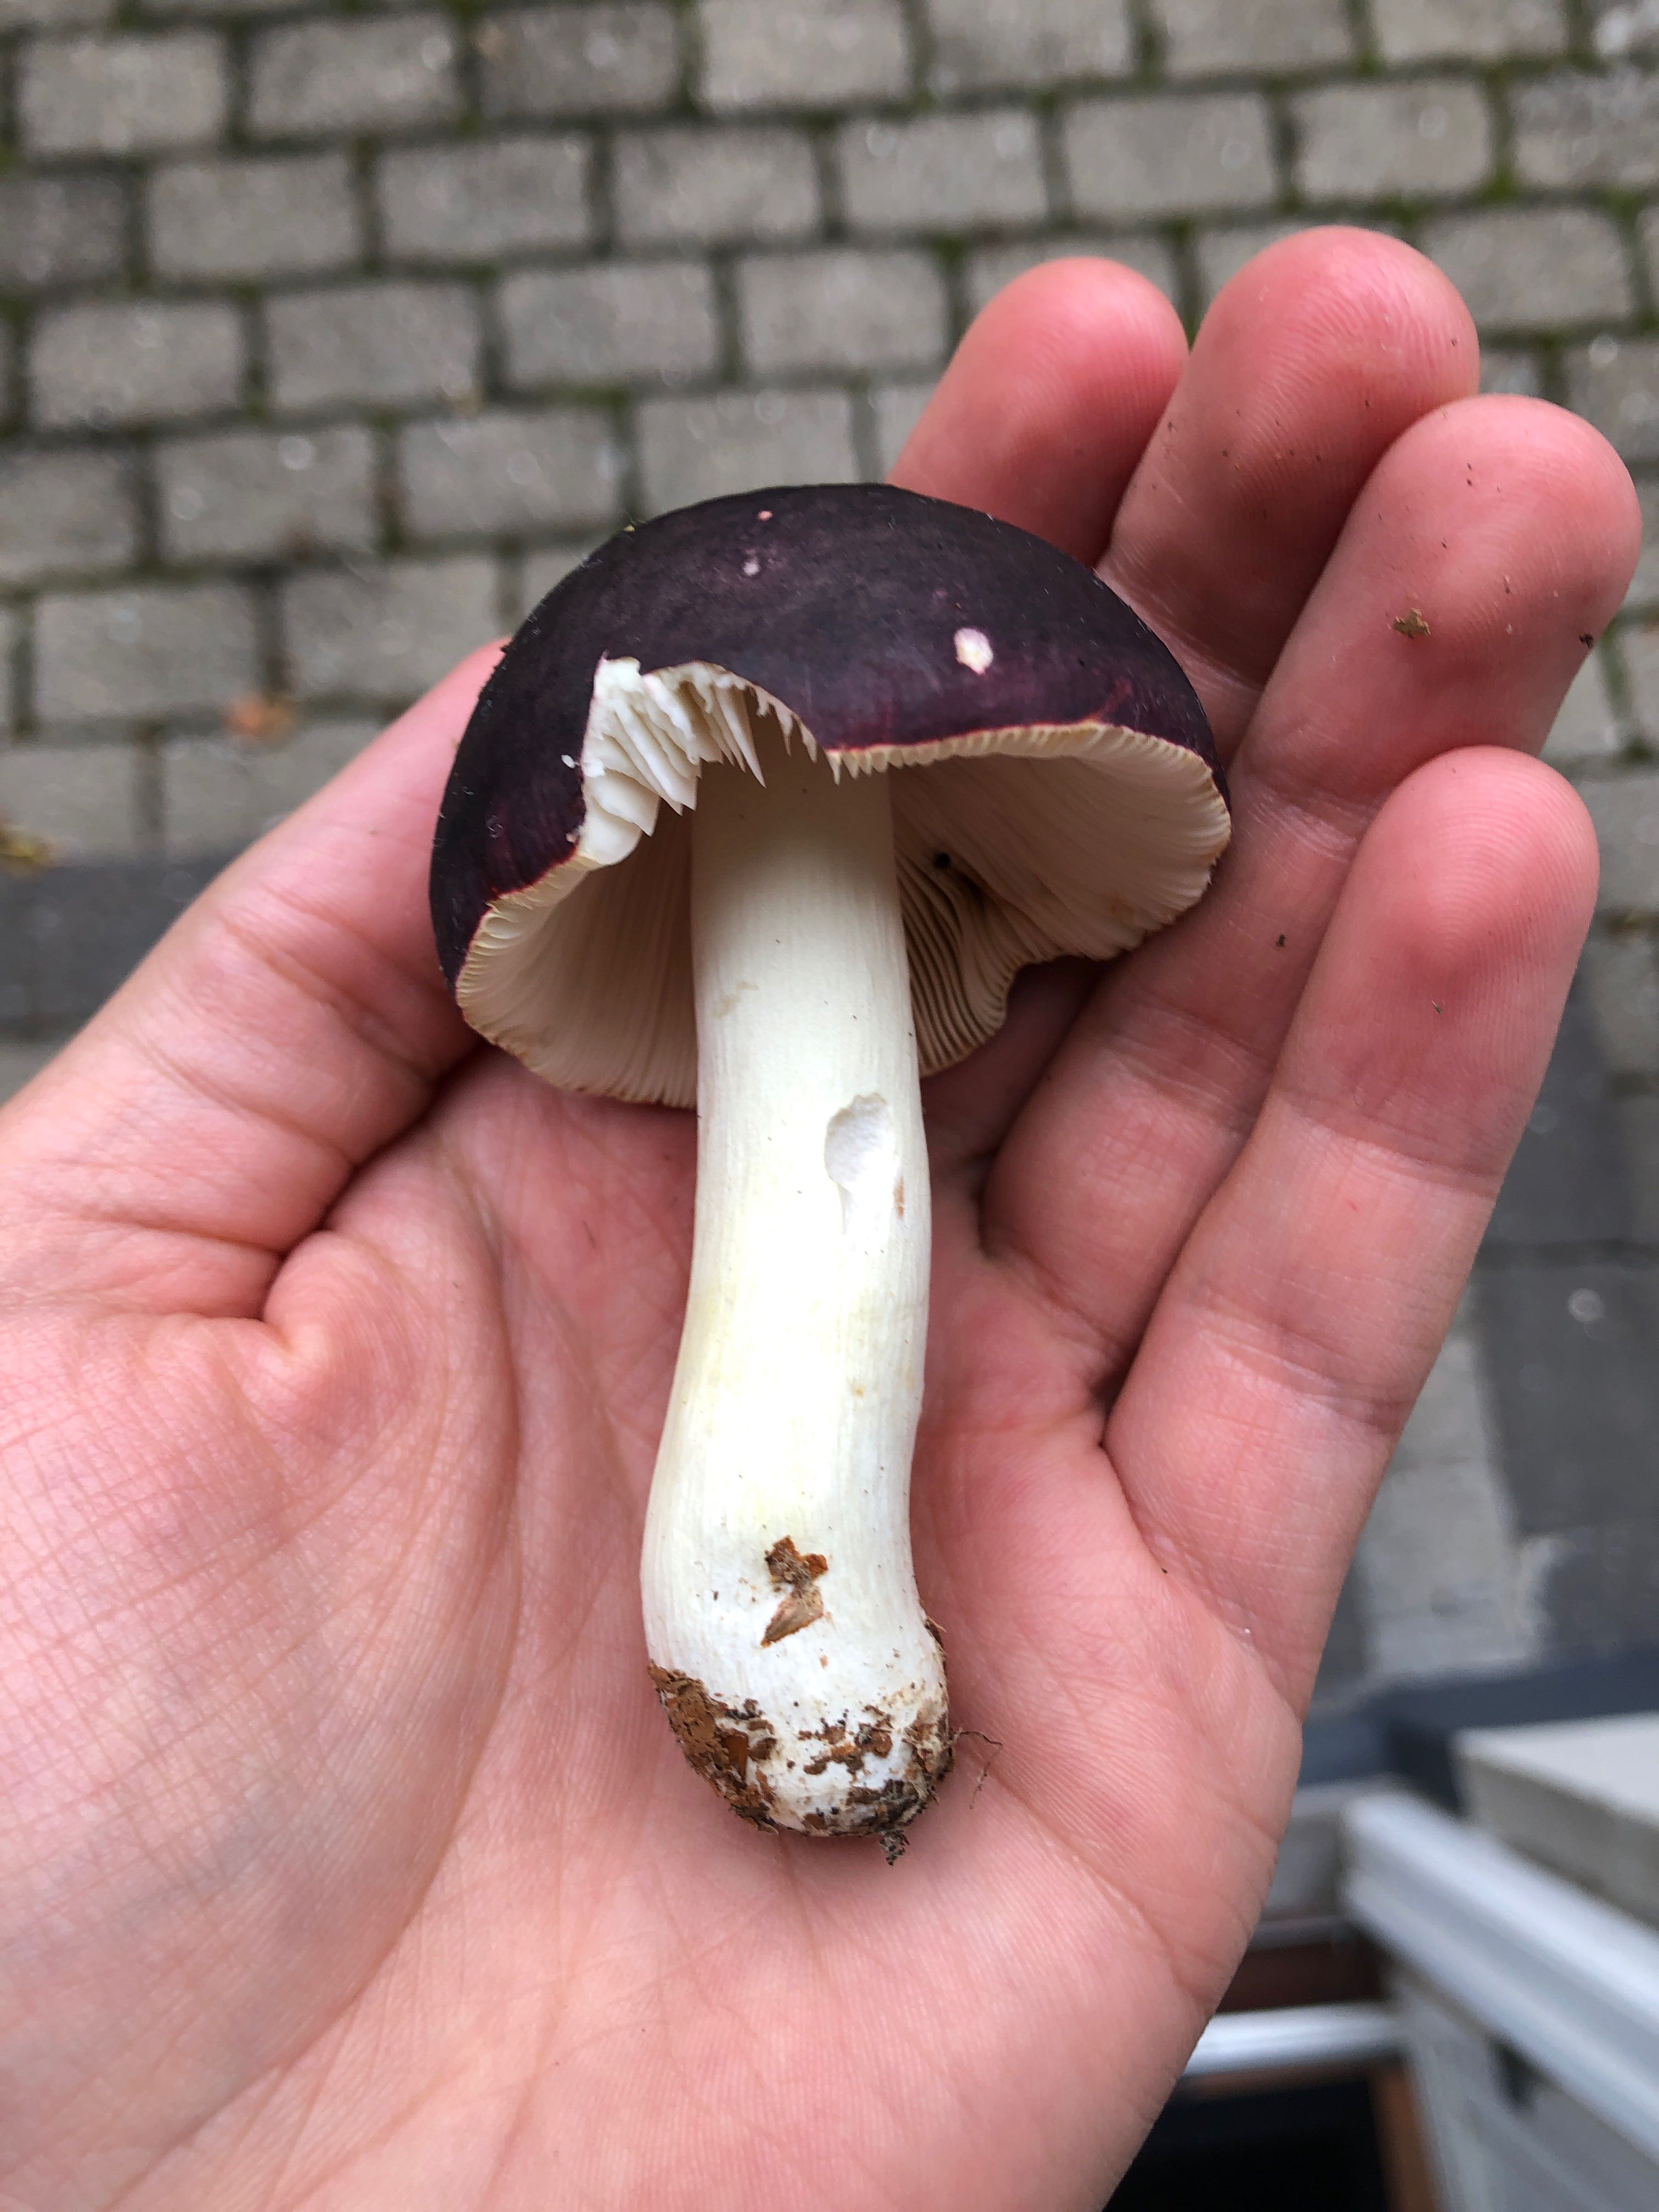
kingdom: Fungi
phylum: Basidiomycota
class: Agaricomycetes
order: Russulales
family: Russulaceae
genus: Russula
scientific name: Russula
